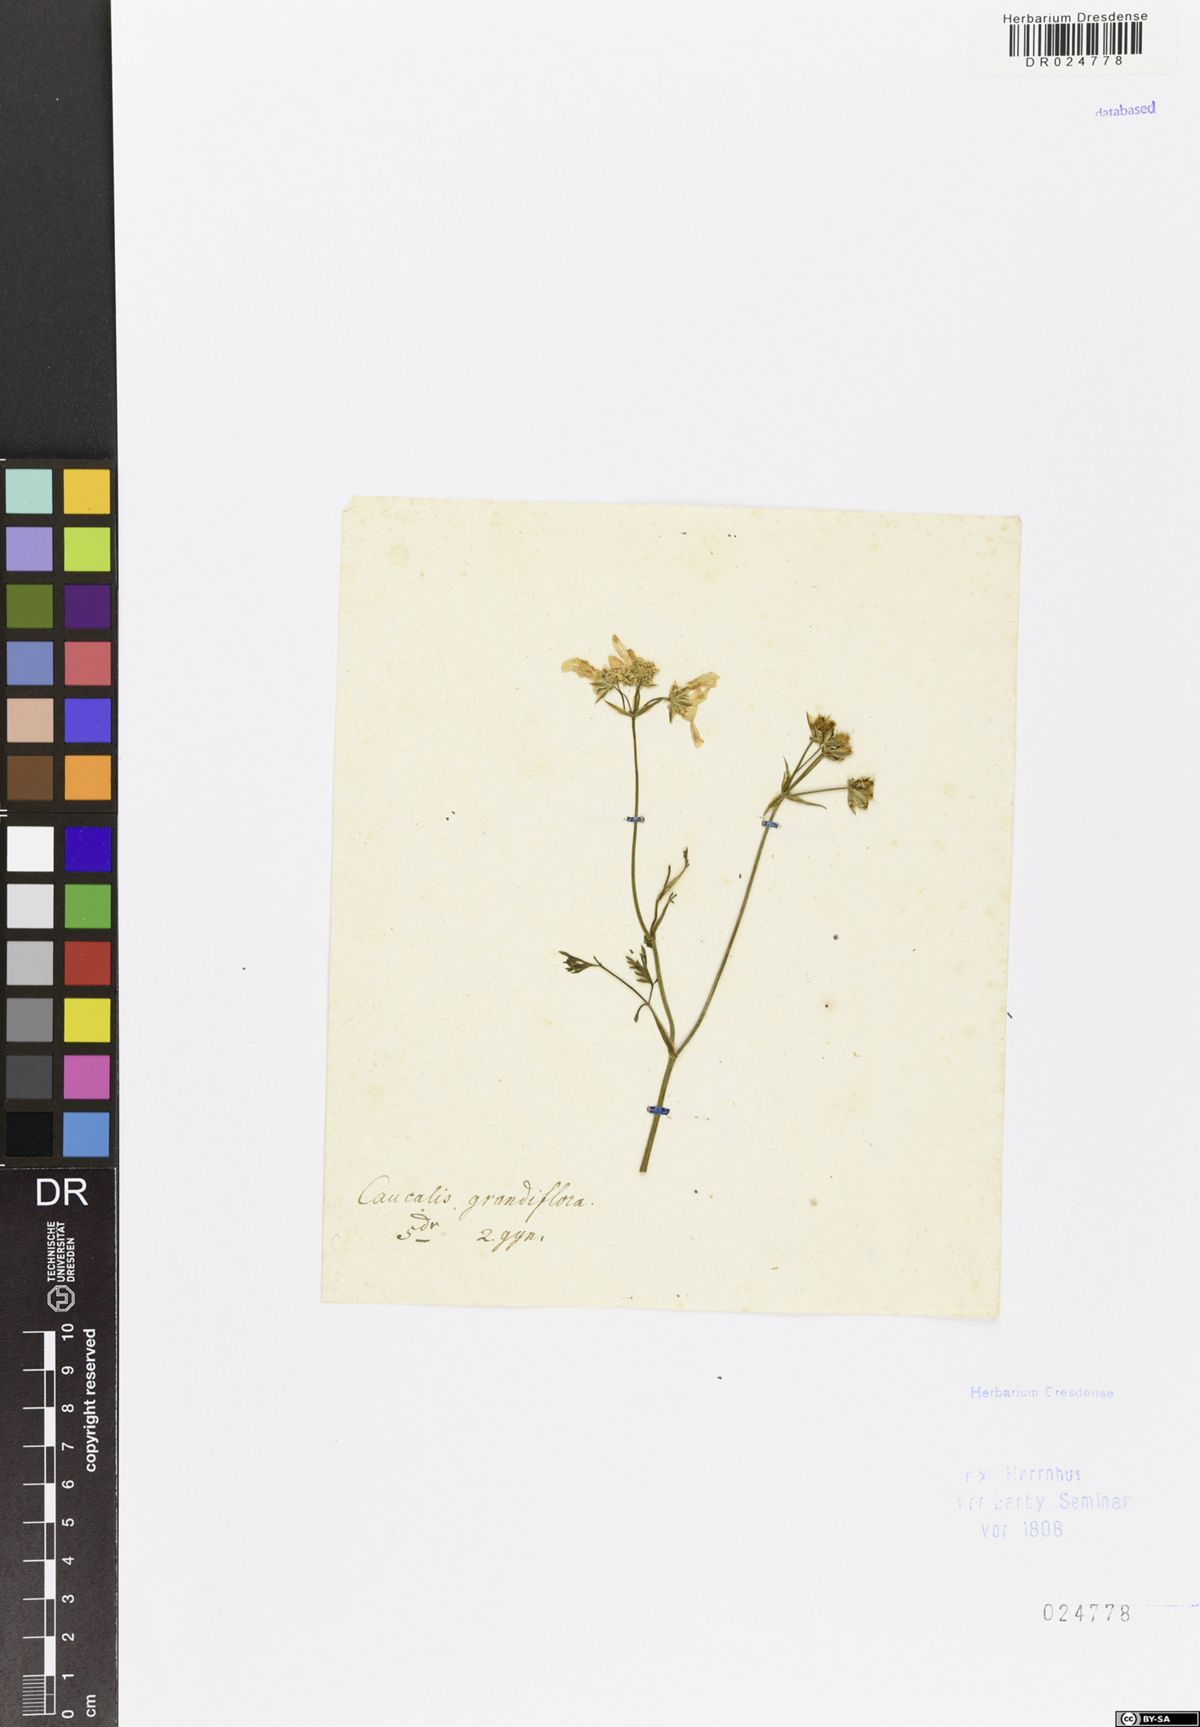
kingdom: Plantae
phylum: Tracheophyta
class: Magnoliopsida
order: Apiales
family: Apiaceae
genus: Orlaya
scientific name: Orlaya grandiflora
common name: White lace flower
